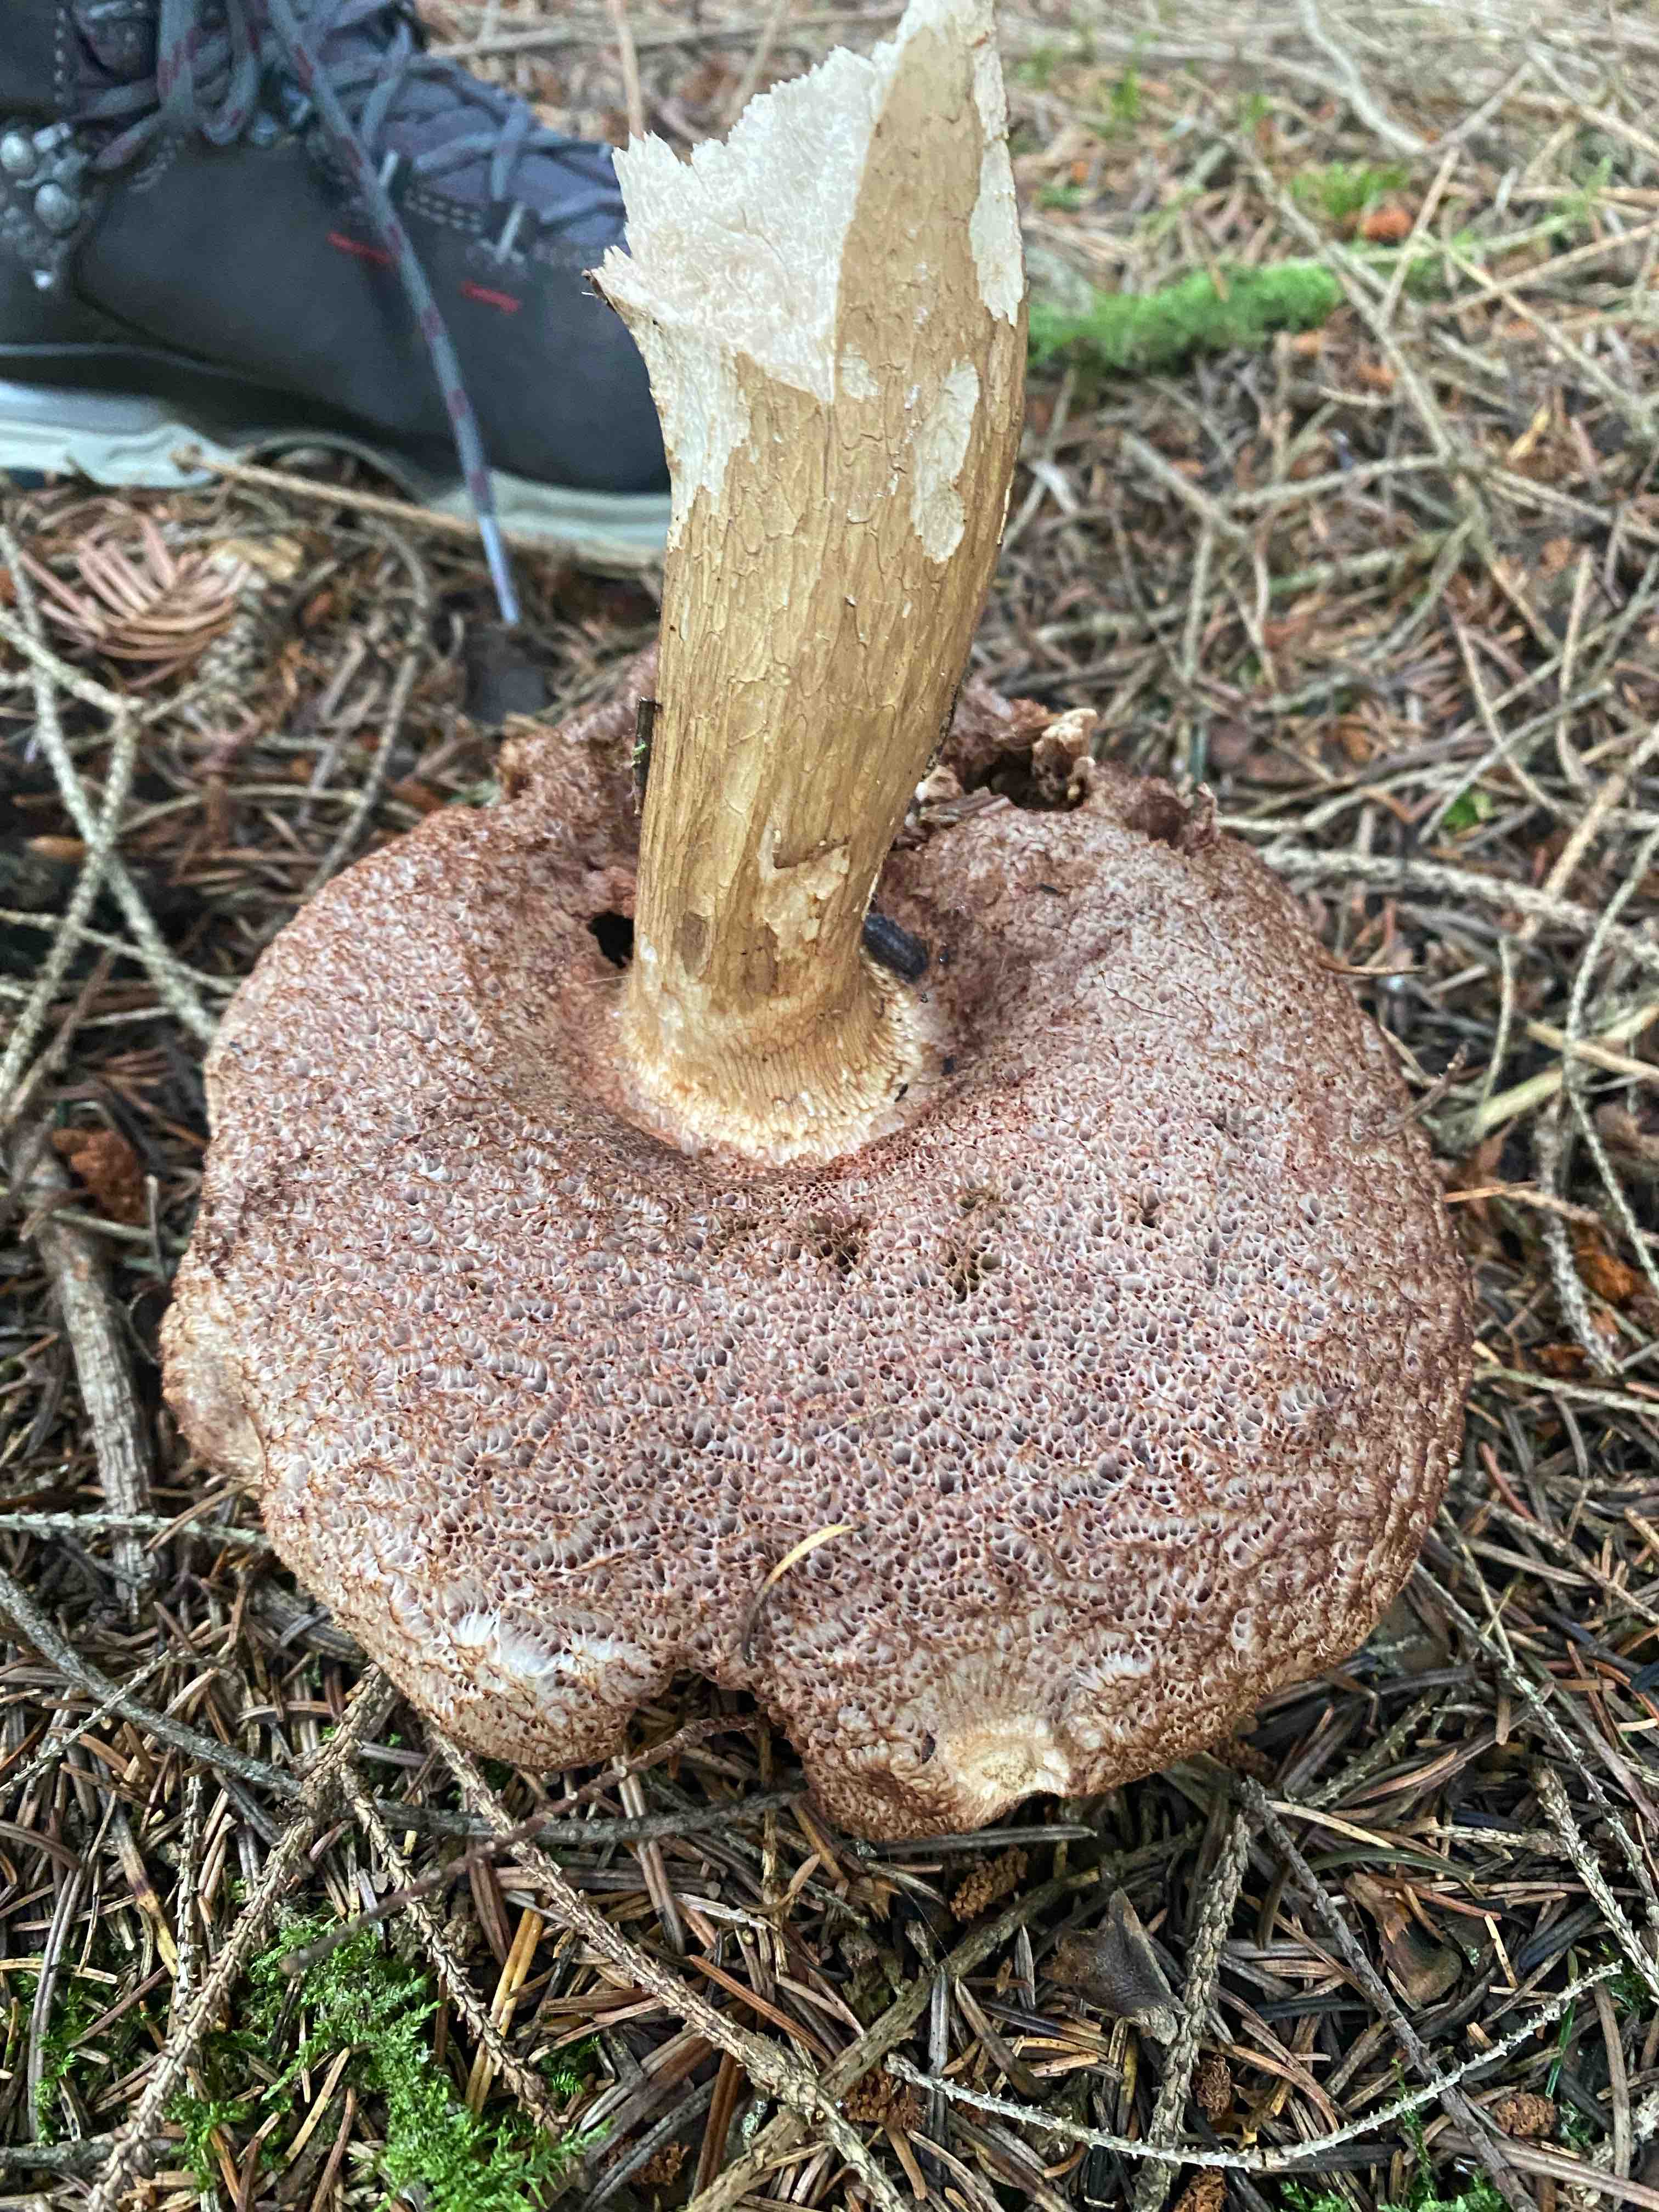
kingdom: Fungi
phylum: Basidiomycota
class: Agaricomycetes
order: Boletales
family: Boletaceae
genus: Tylopilus
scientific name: Tylopilus felleus
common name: galderørhat
